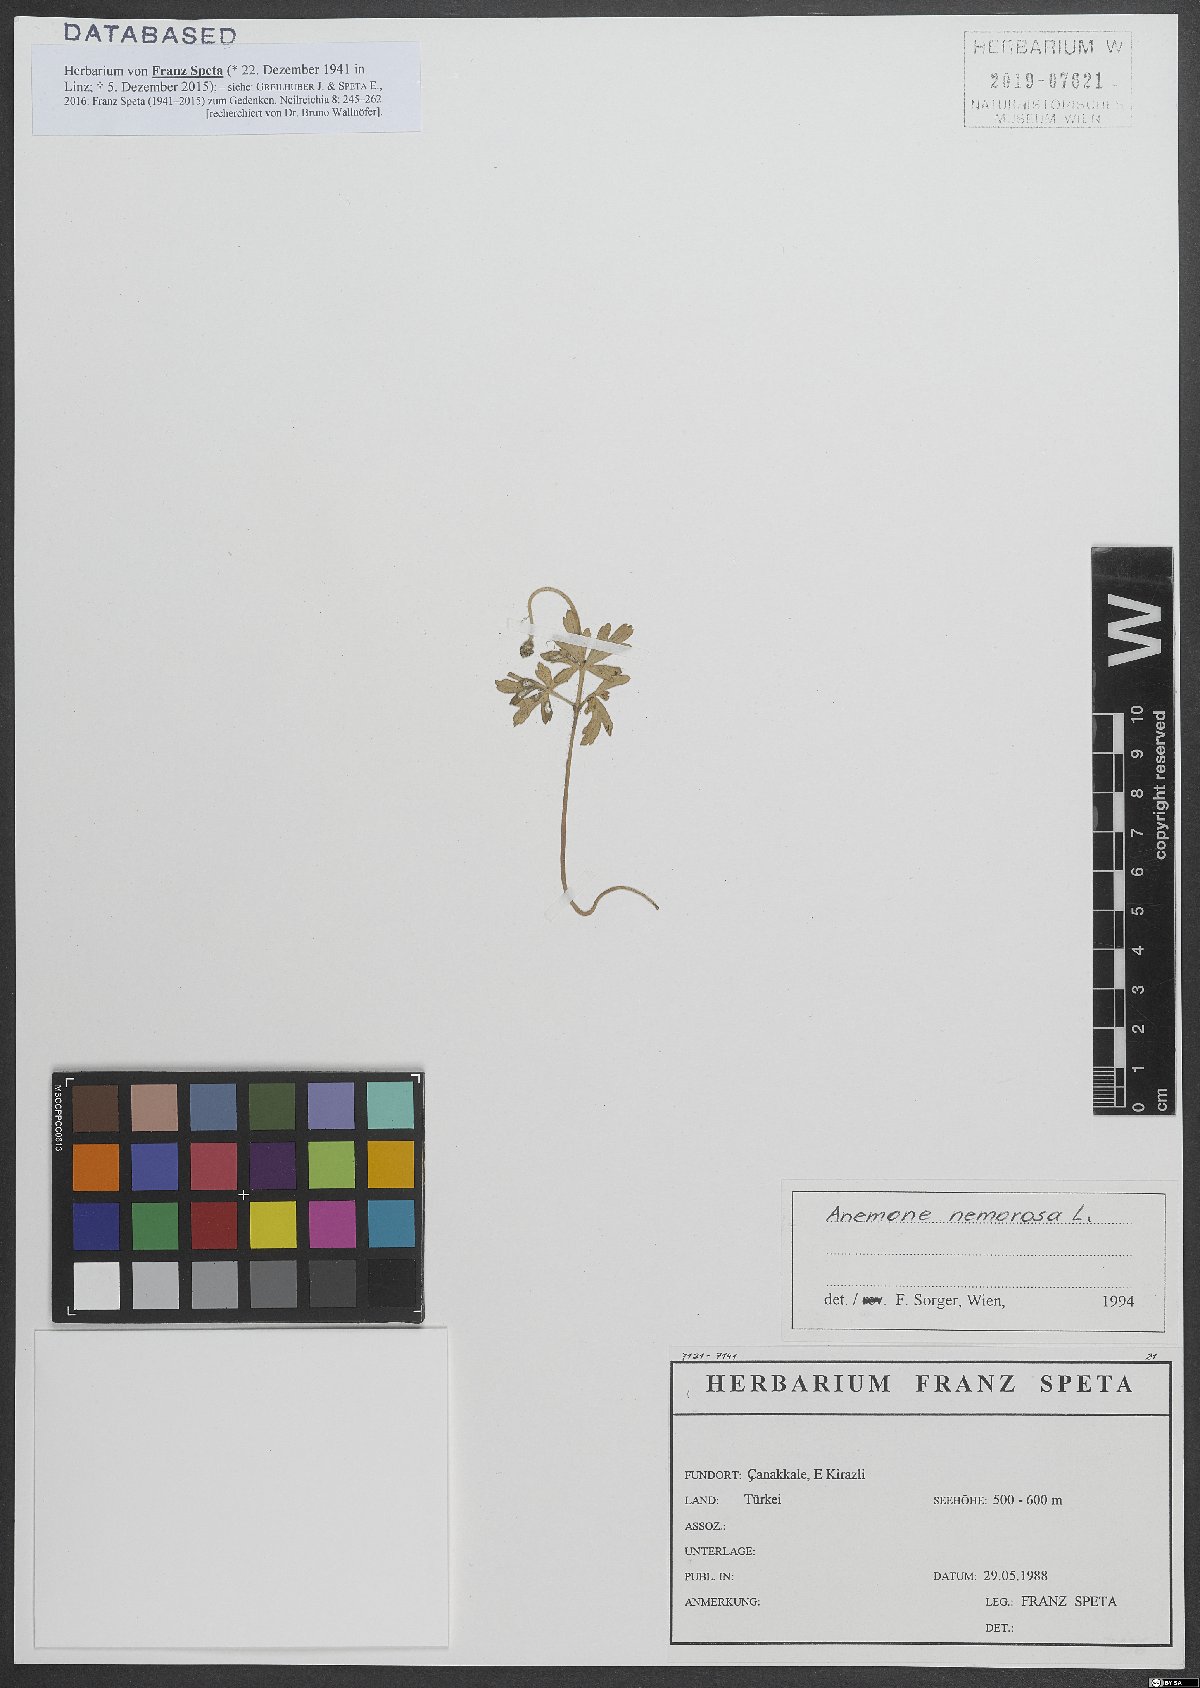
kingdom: Plantae
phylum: Tracheophyta
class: Magnoliopsida
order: Ranunculales
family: Ranunculaceae
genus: Anemone
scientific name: Anemone nemorosa
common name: Wood anemone
